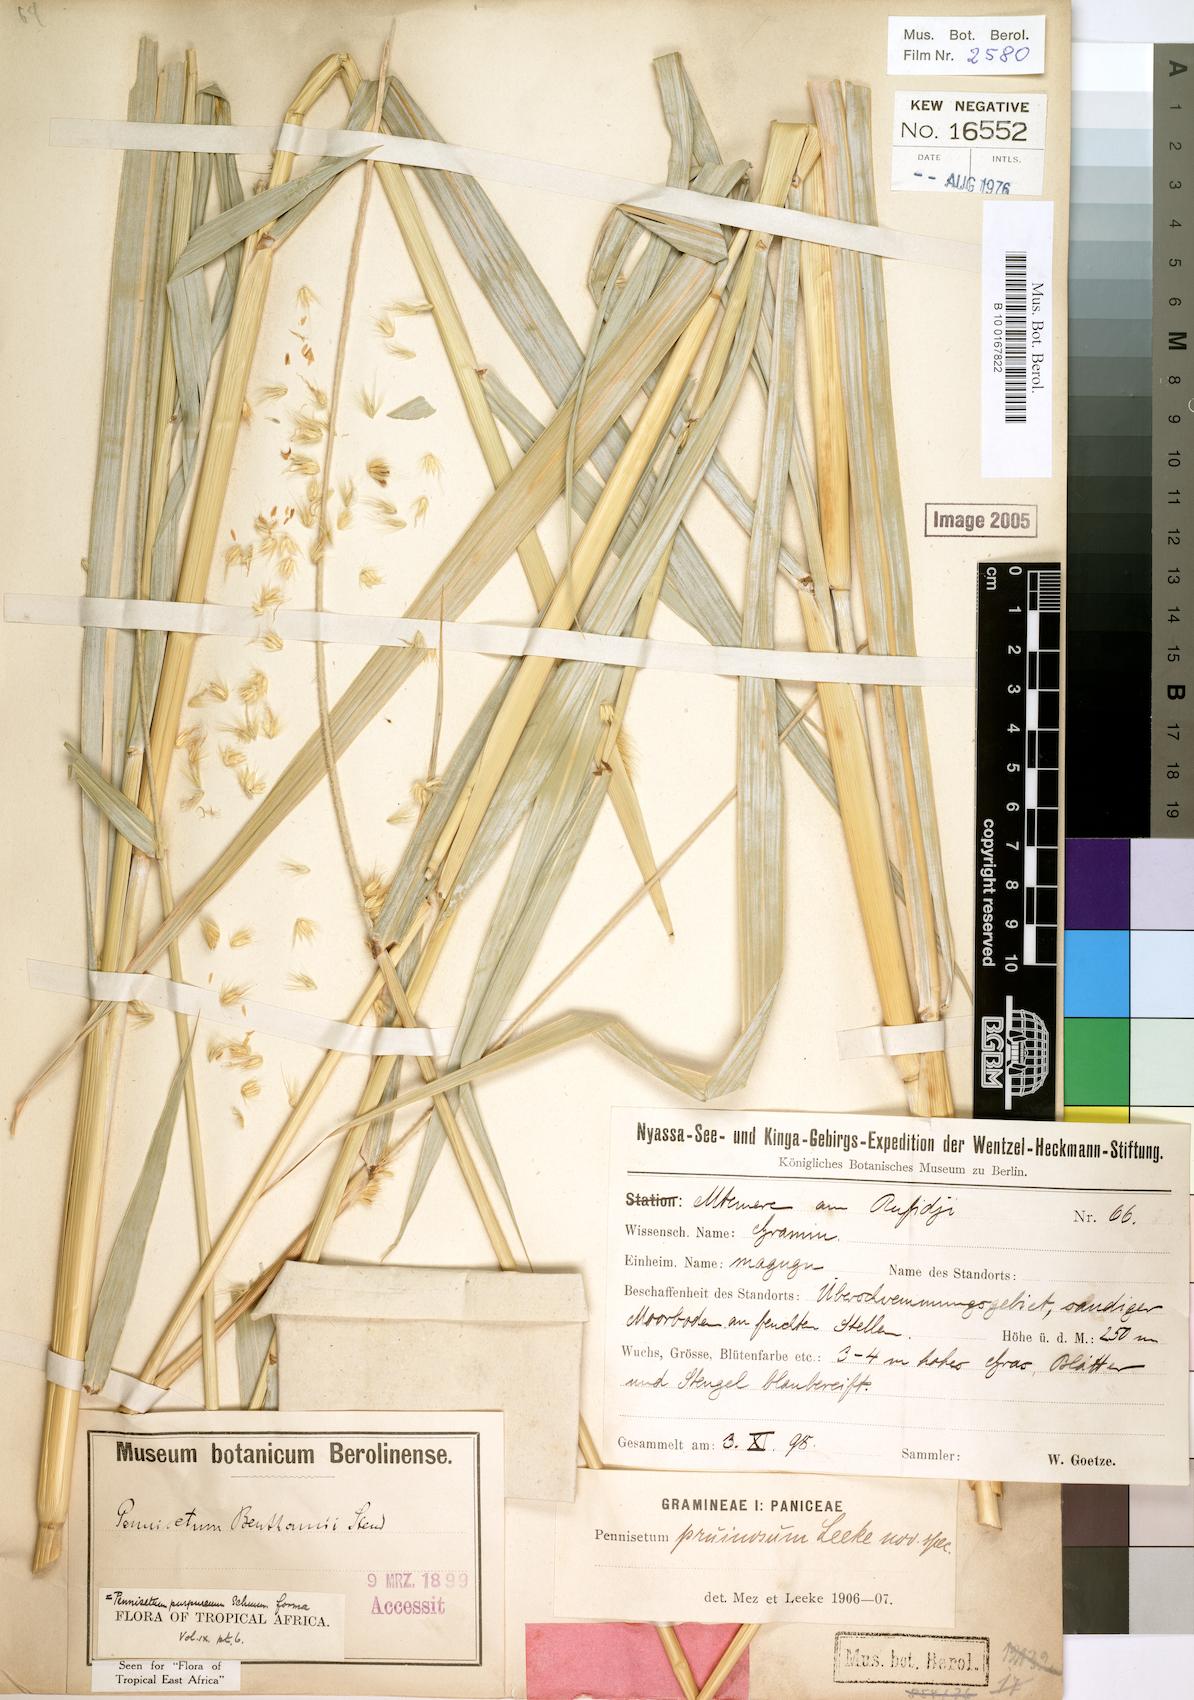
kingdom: Plantae
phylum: Tracheophyta
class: Liliopsida
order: Poales
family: Poaceae
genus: Cenchrus
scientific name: Cenchrus purpureus
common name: Elephant grass
